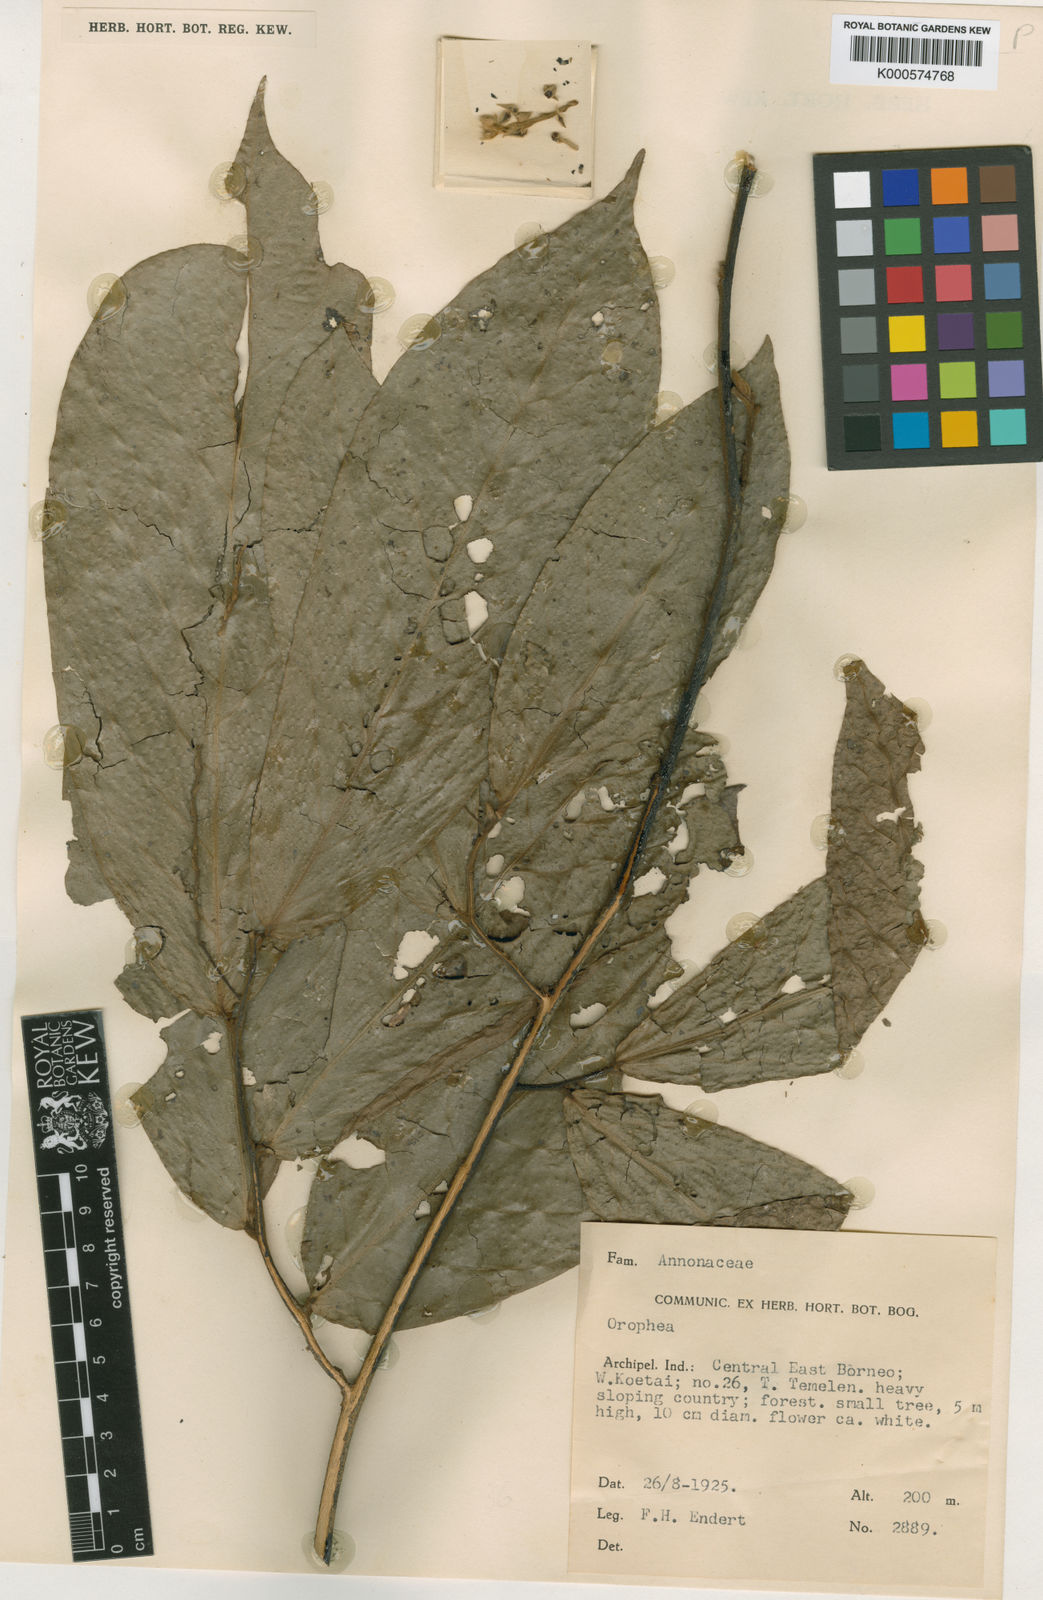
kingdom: Plantae
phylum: Tracheophyta
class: Magnoliopsida
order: Magnoliales
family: Annonaceae
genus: Orophea
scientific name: Orophea flagellaris
